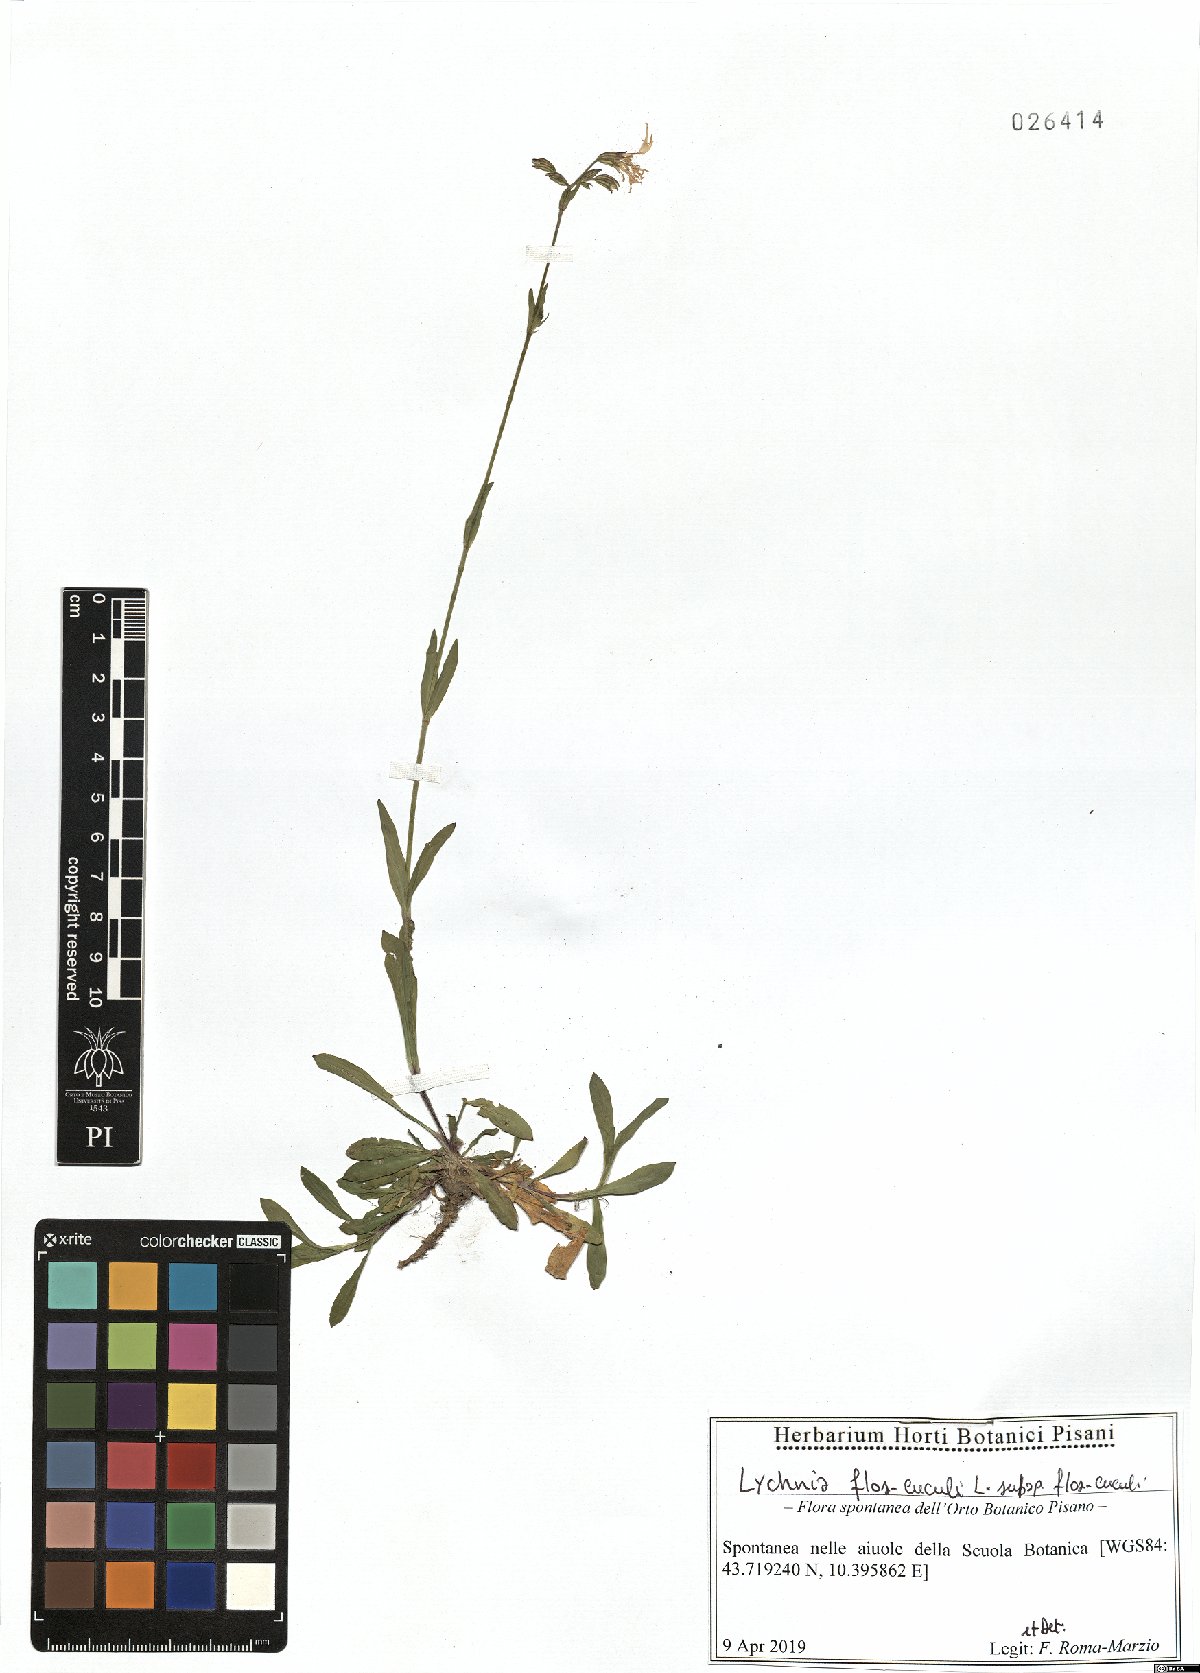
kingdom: Plantae
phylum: Tracheophyta
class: Magnoliopsida
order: Caryophyllales
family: Caryophyllaceae
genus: Silene
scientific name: Silene flos-cuculi
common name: Ragged-robin
